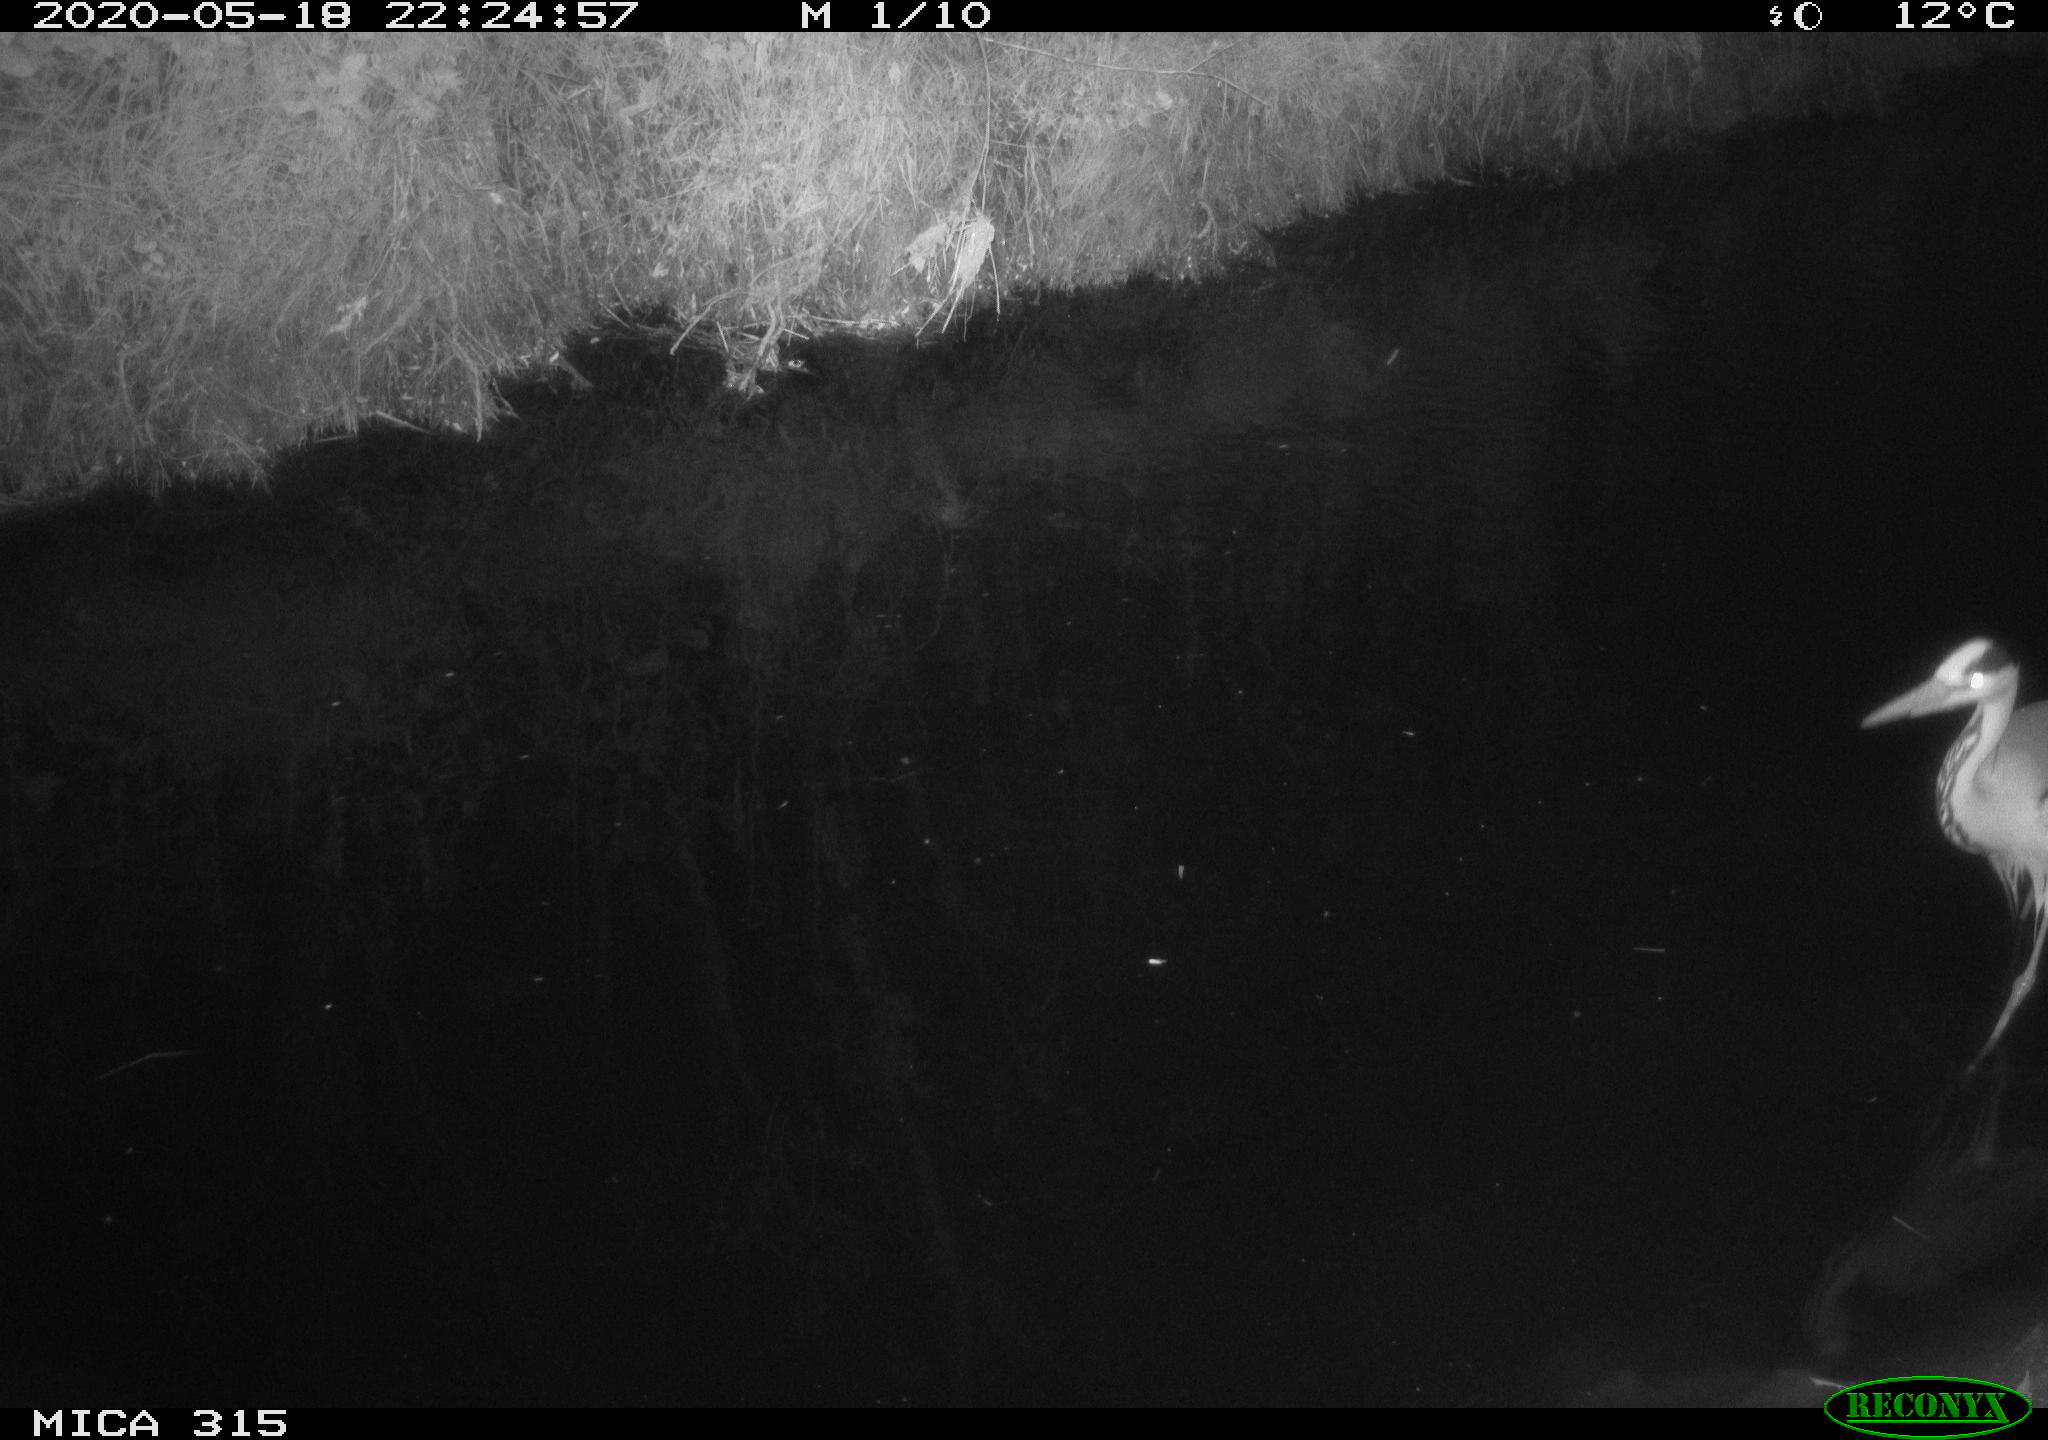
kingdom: Animalia
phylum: Chordata
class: Aves
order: Pelecaniformes
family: Ardeidae
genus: Ardea
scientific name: Ardea cinerea
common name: Grey heron
